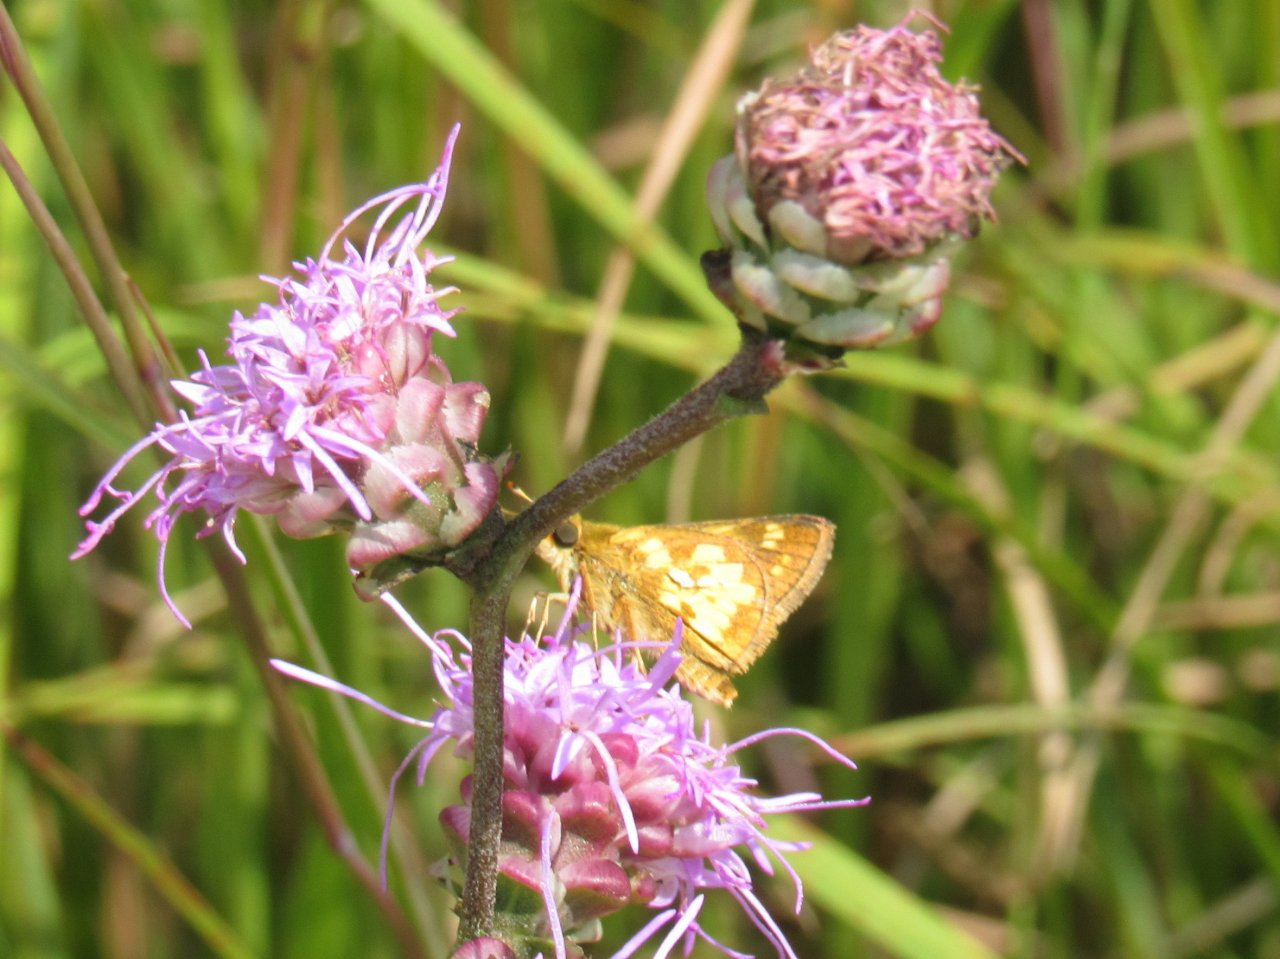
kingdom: Animalia
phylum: Arthropoda
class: Insecta
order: Lepidoptera
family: Hesperiidae
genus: Polites
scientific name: Polites coras
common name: Peck's Skipper
